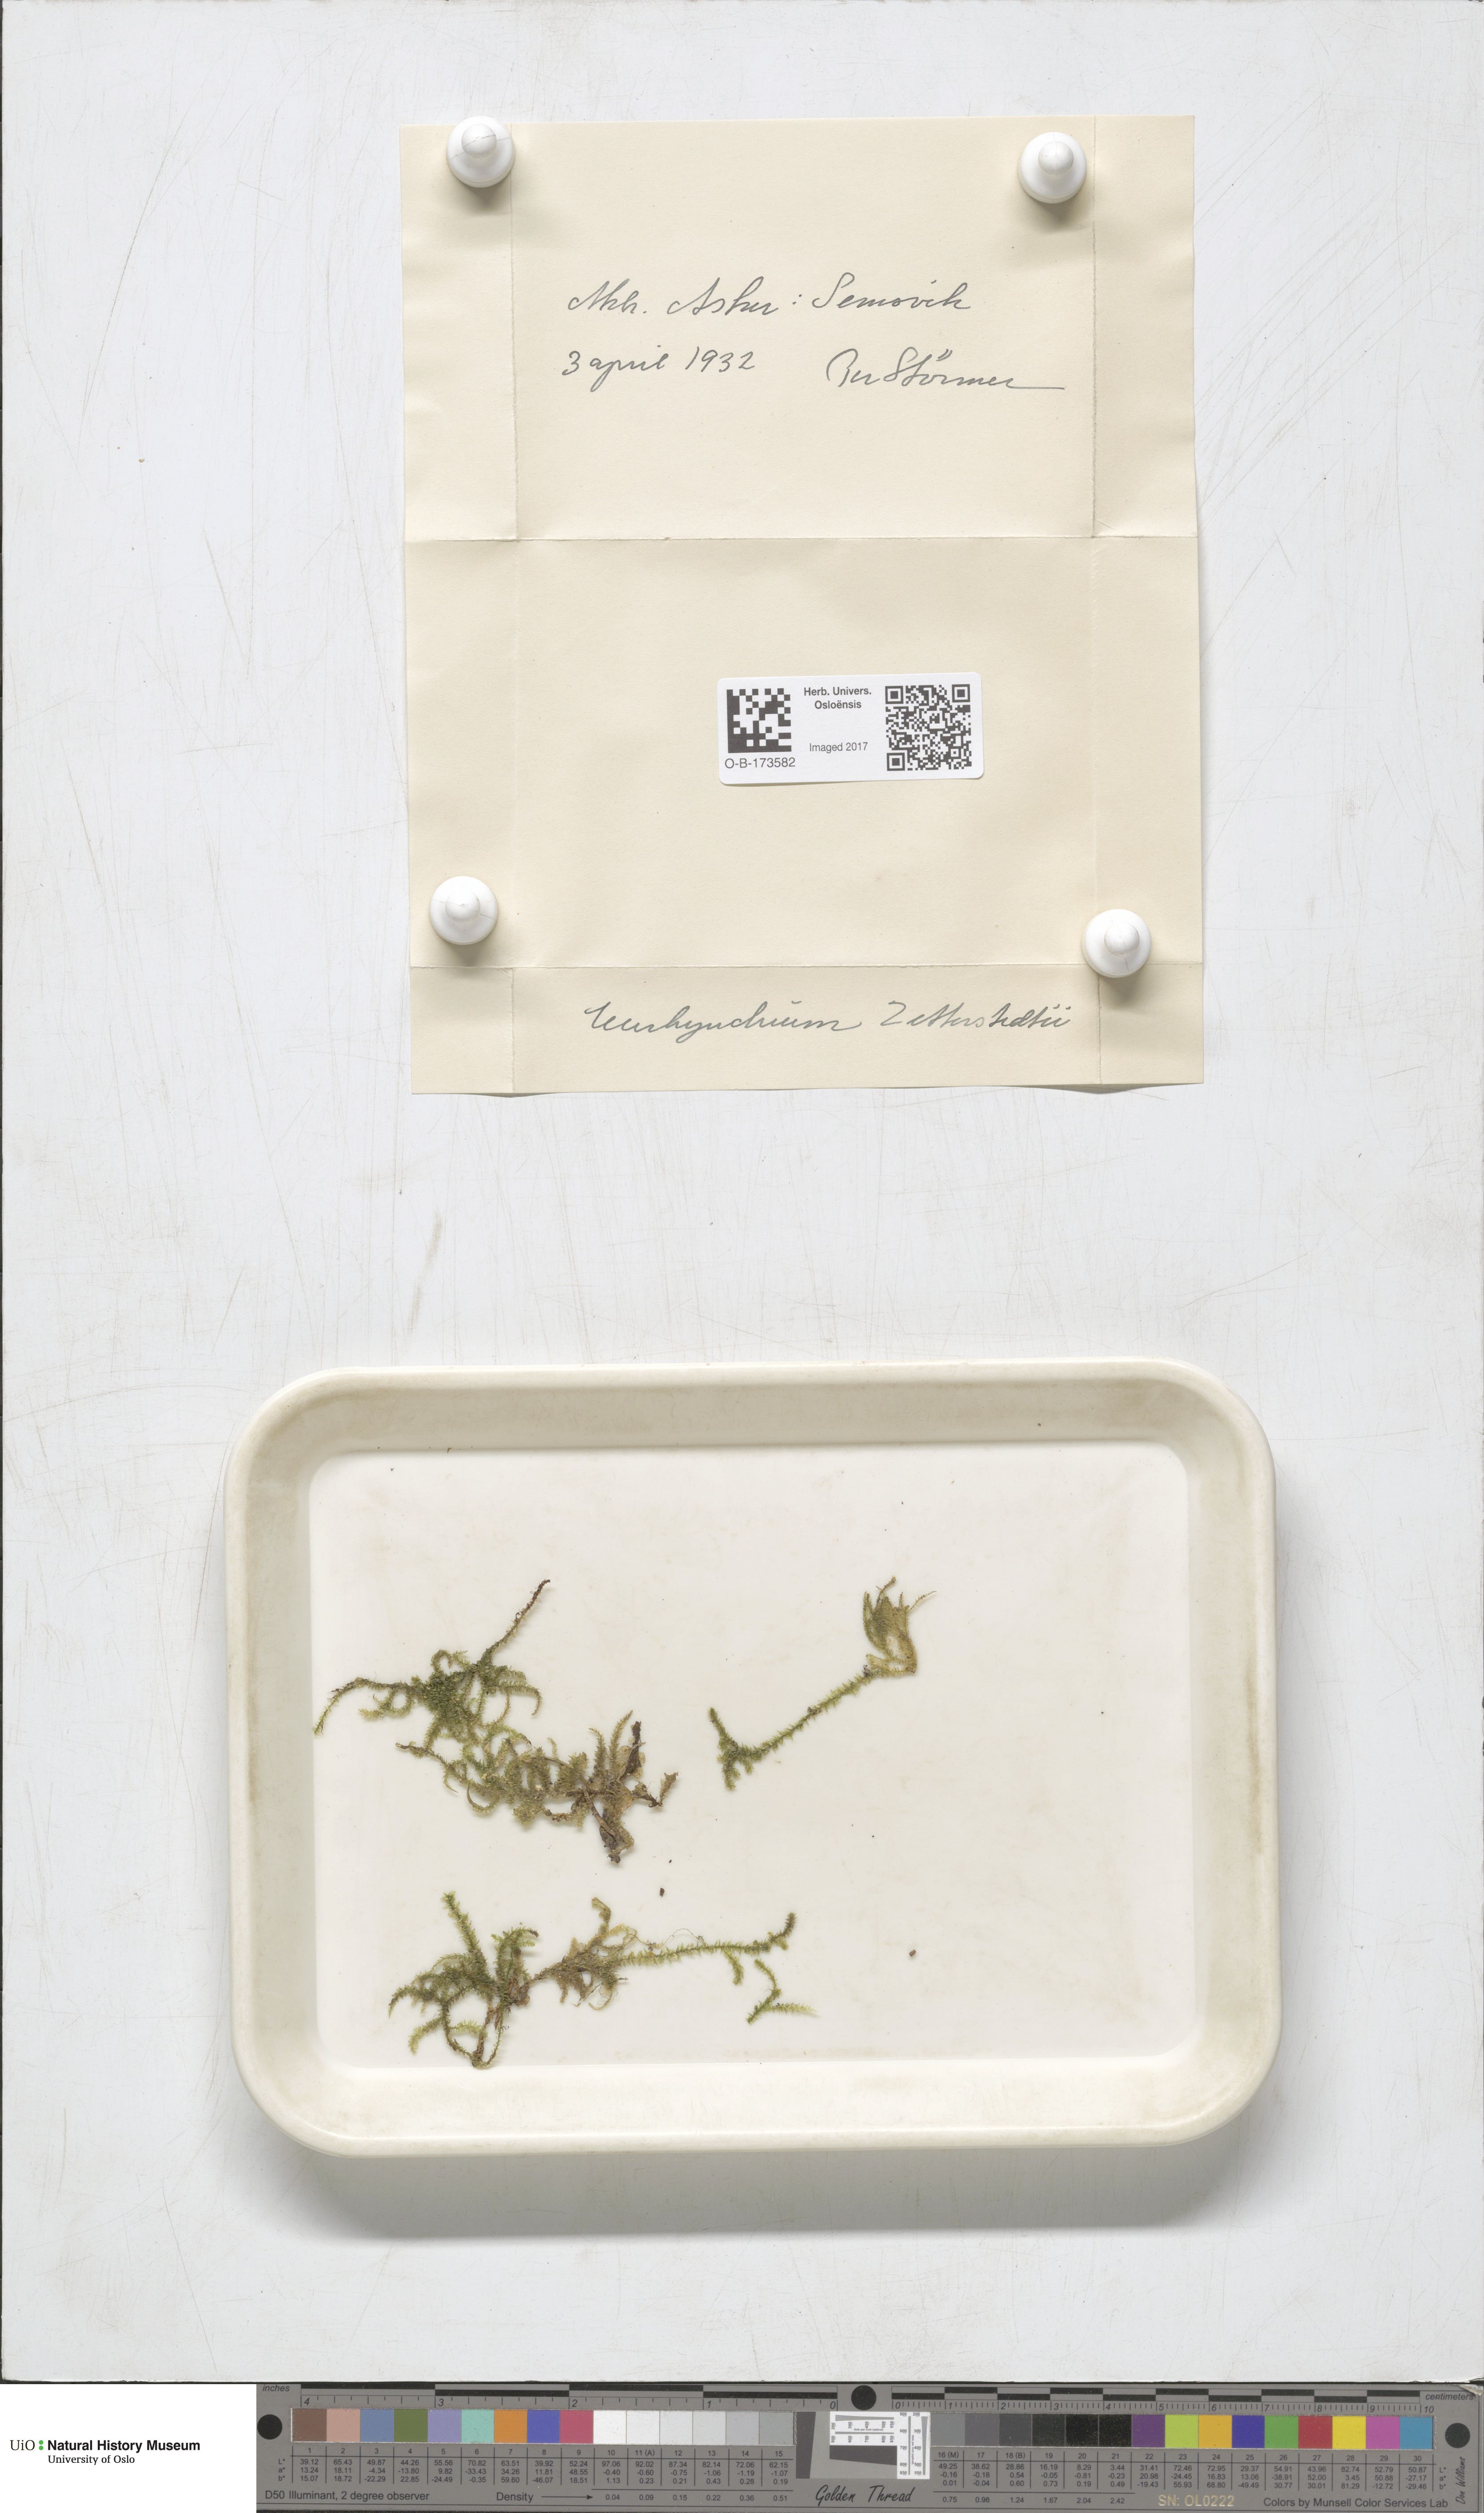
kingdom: Plantae
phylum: Bryophyta
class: Bryopsida
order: Hypnales
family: Brachytheciaceae
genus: Eurhynchium
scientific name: Eurhynchium angustirete
